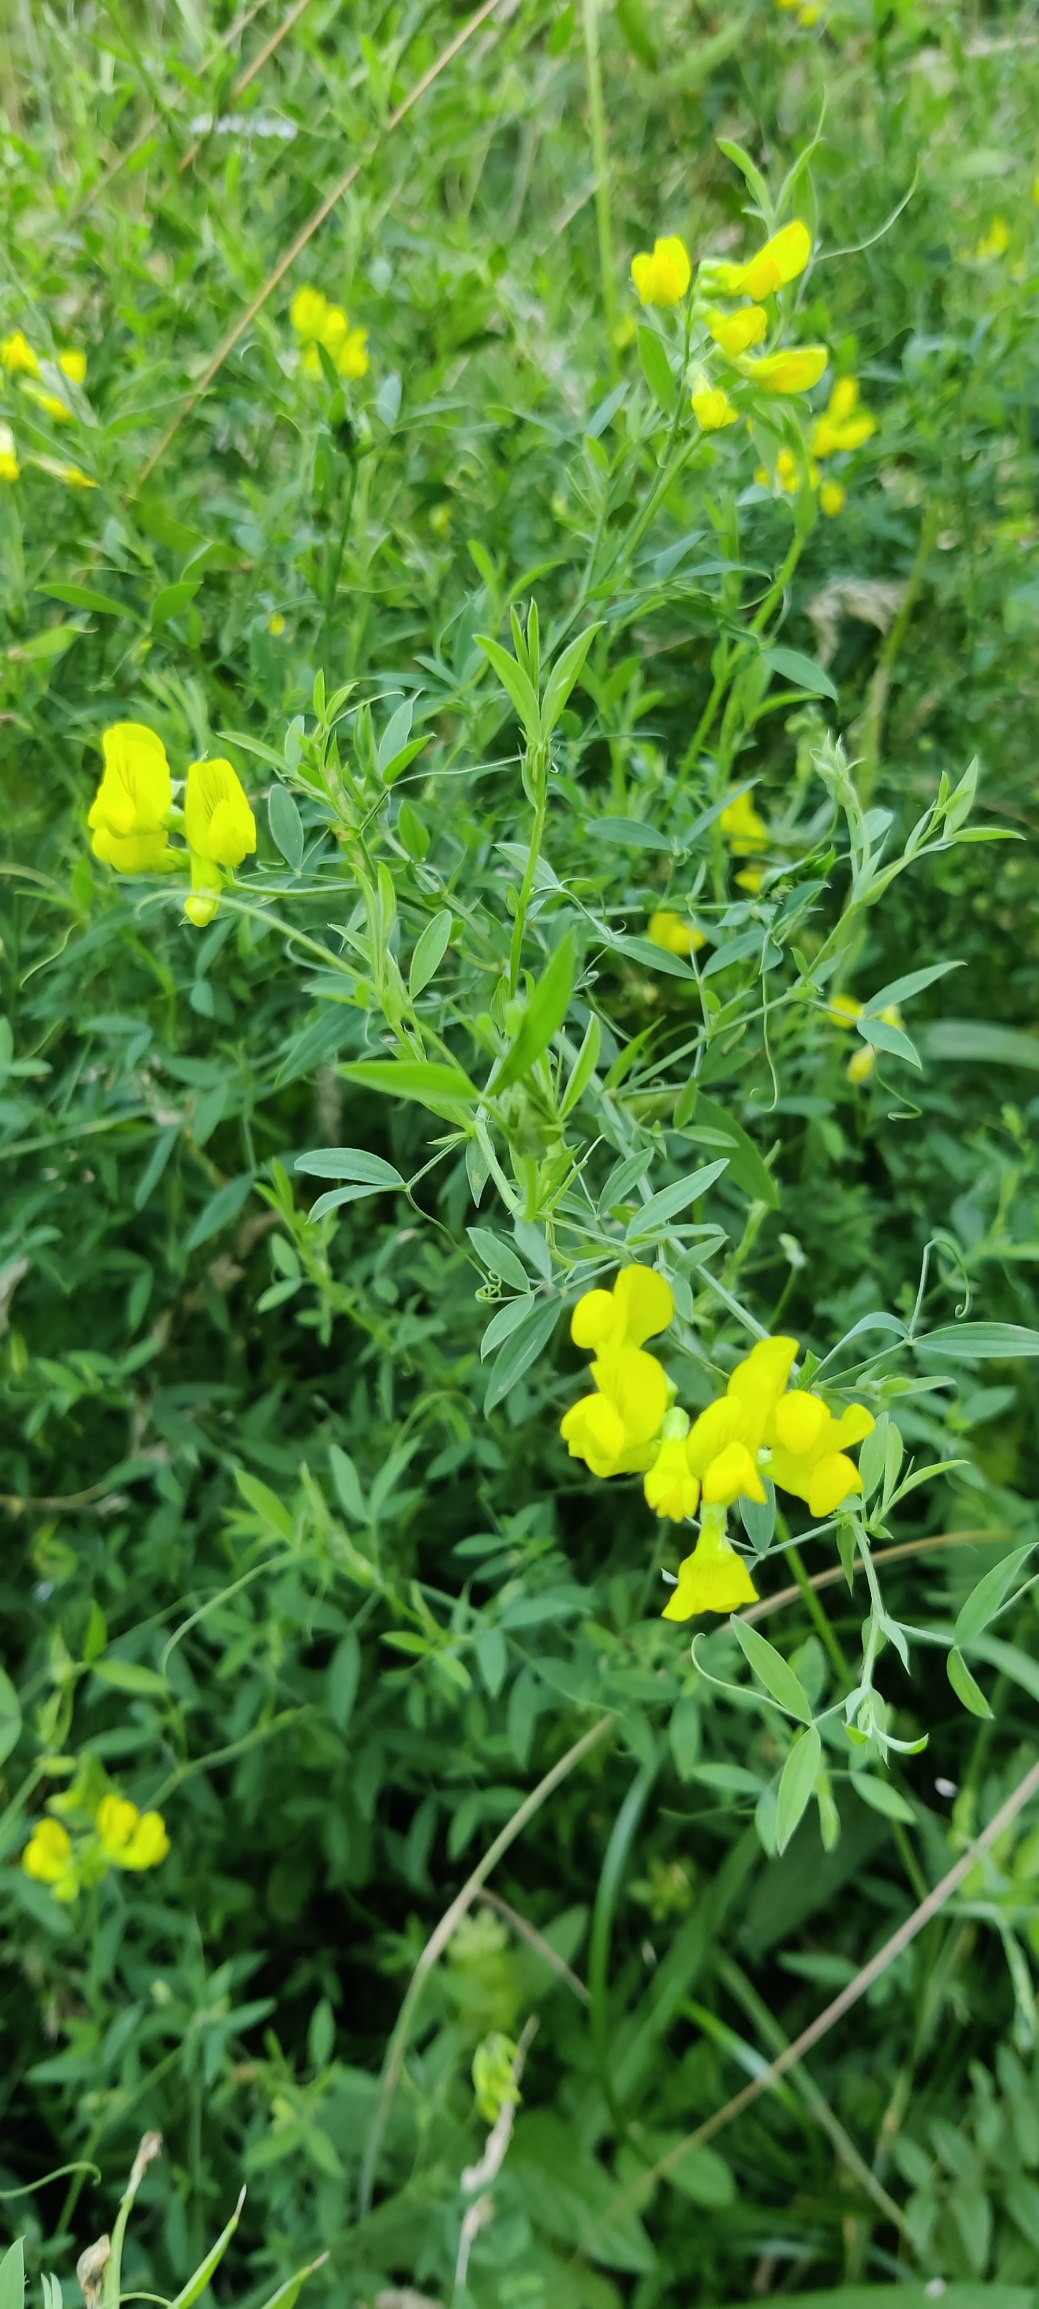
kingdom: Plantae
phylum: Tracheophyta
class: Magnoliopsida
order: Fabales
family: Fabaceae
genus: Lathyrus
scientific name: Lathyrus pratensis
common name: Gul fladbælg
